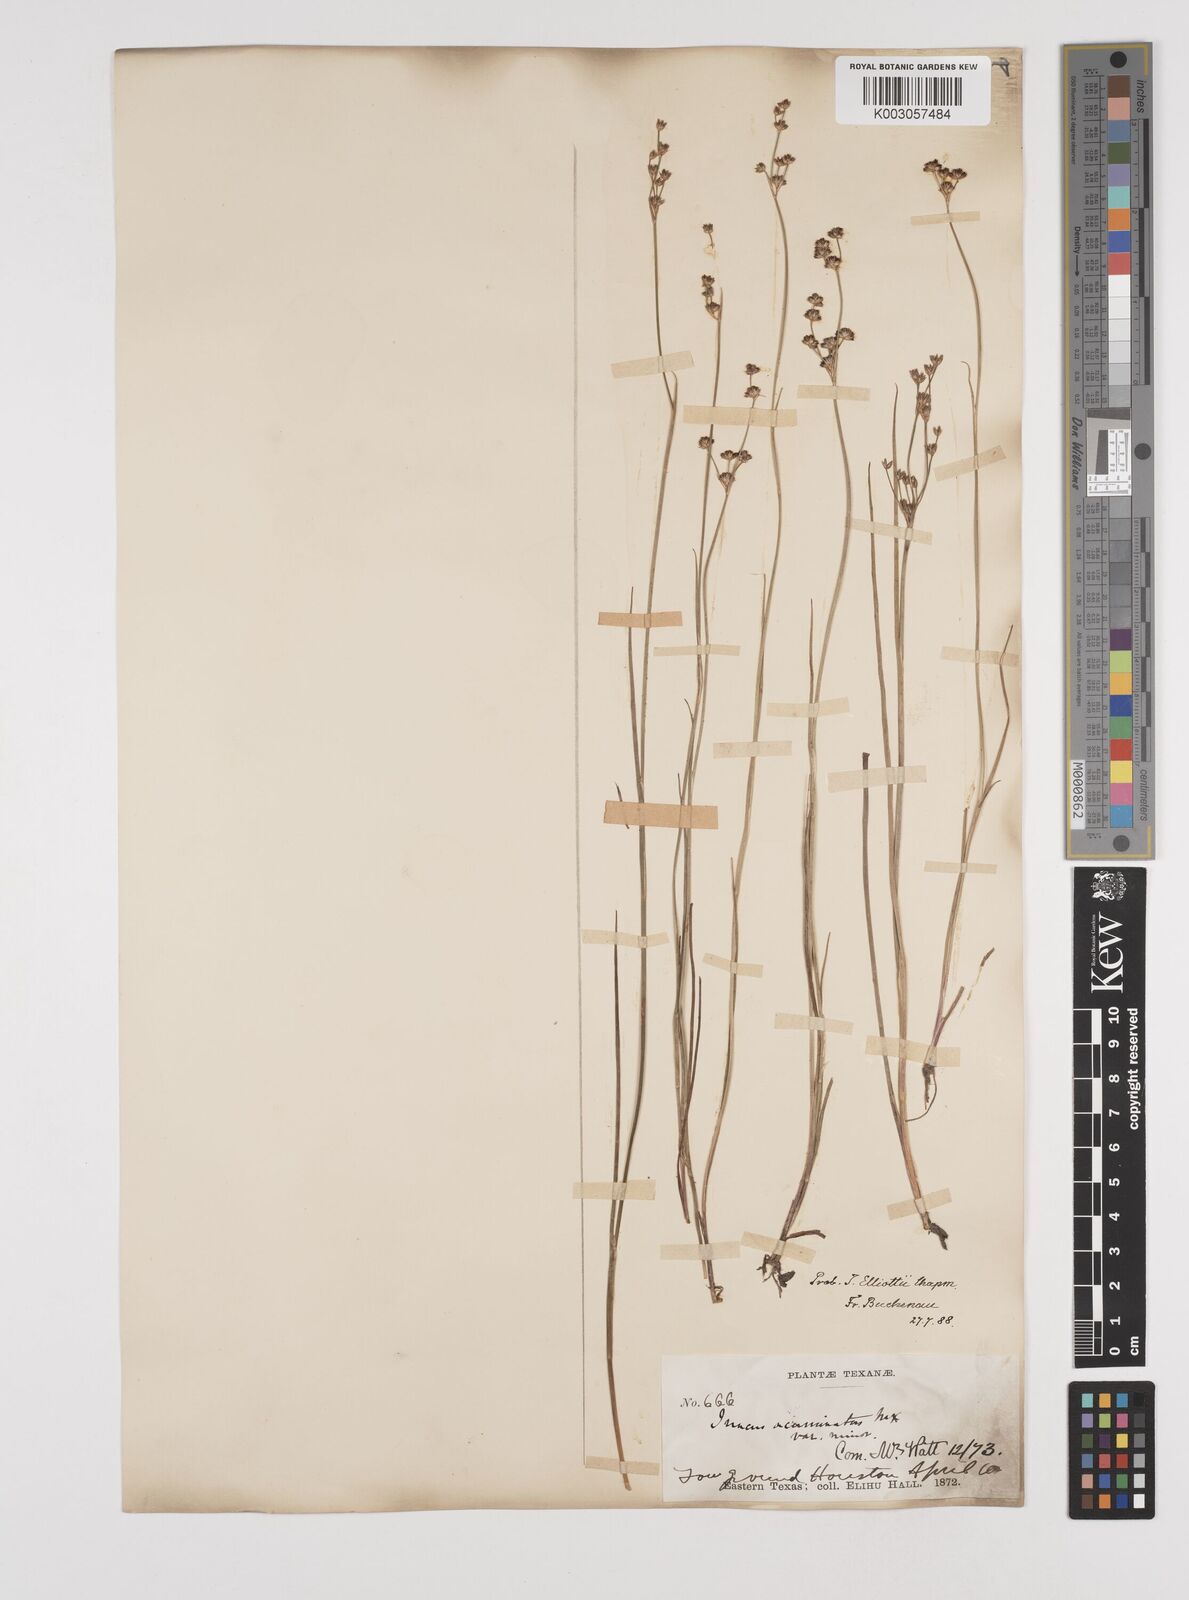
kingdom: Plantae
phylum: Tracheophyta
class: Liliopsida
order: Poales
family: Juncaceae
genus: Juncus
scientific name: Juncus elliottii
